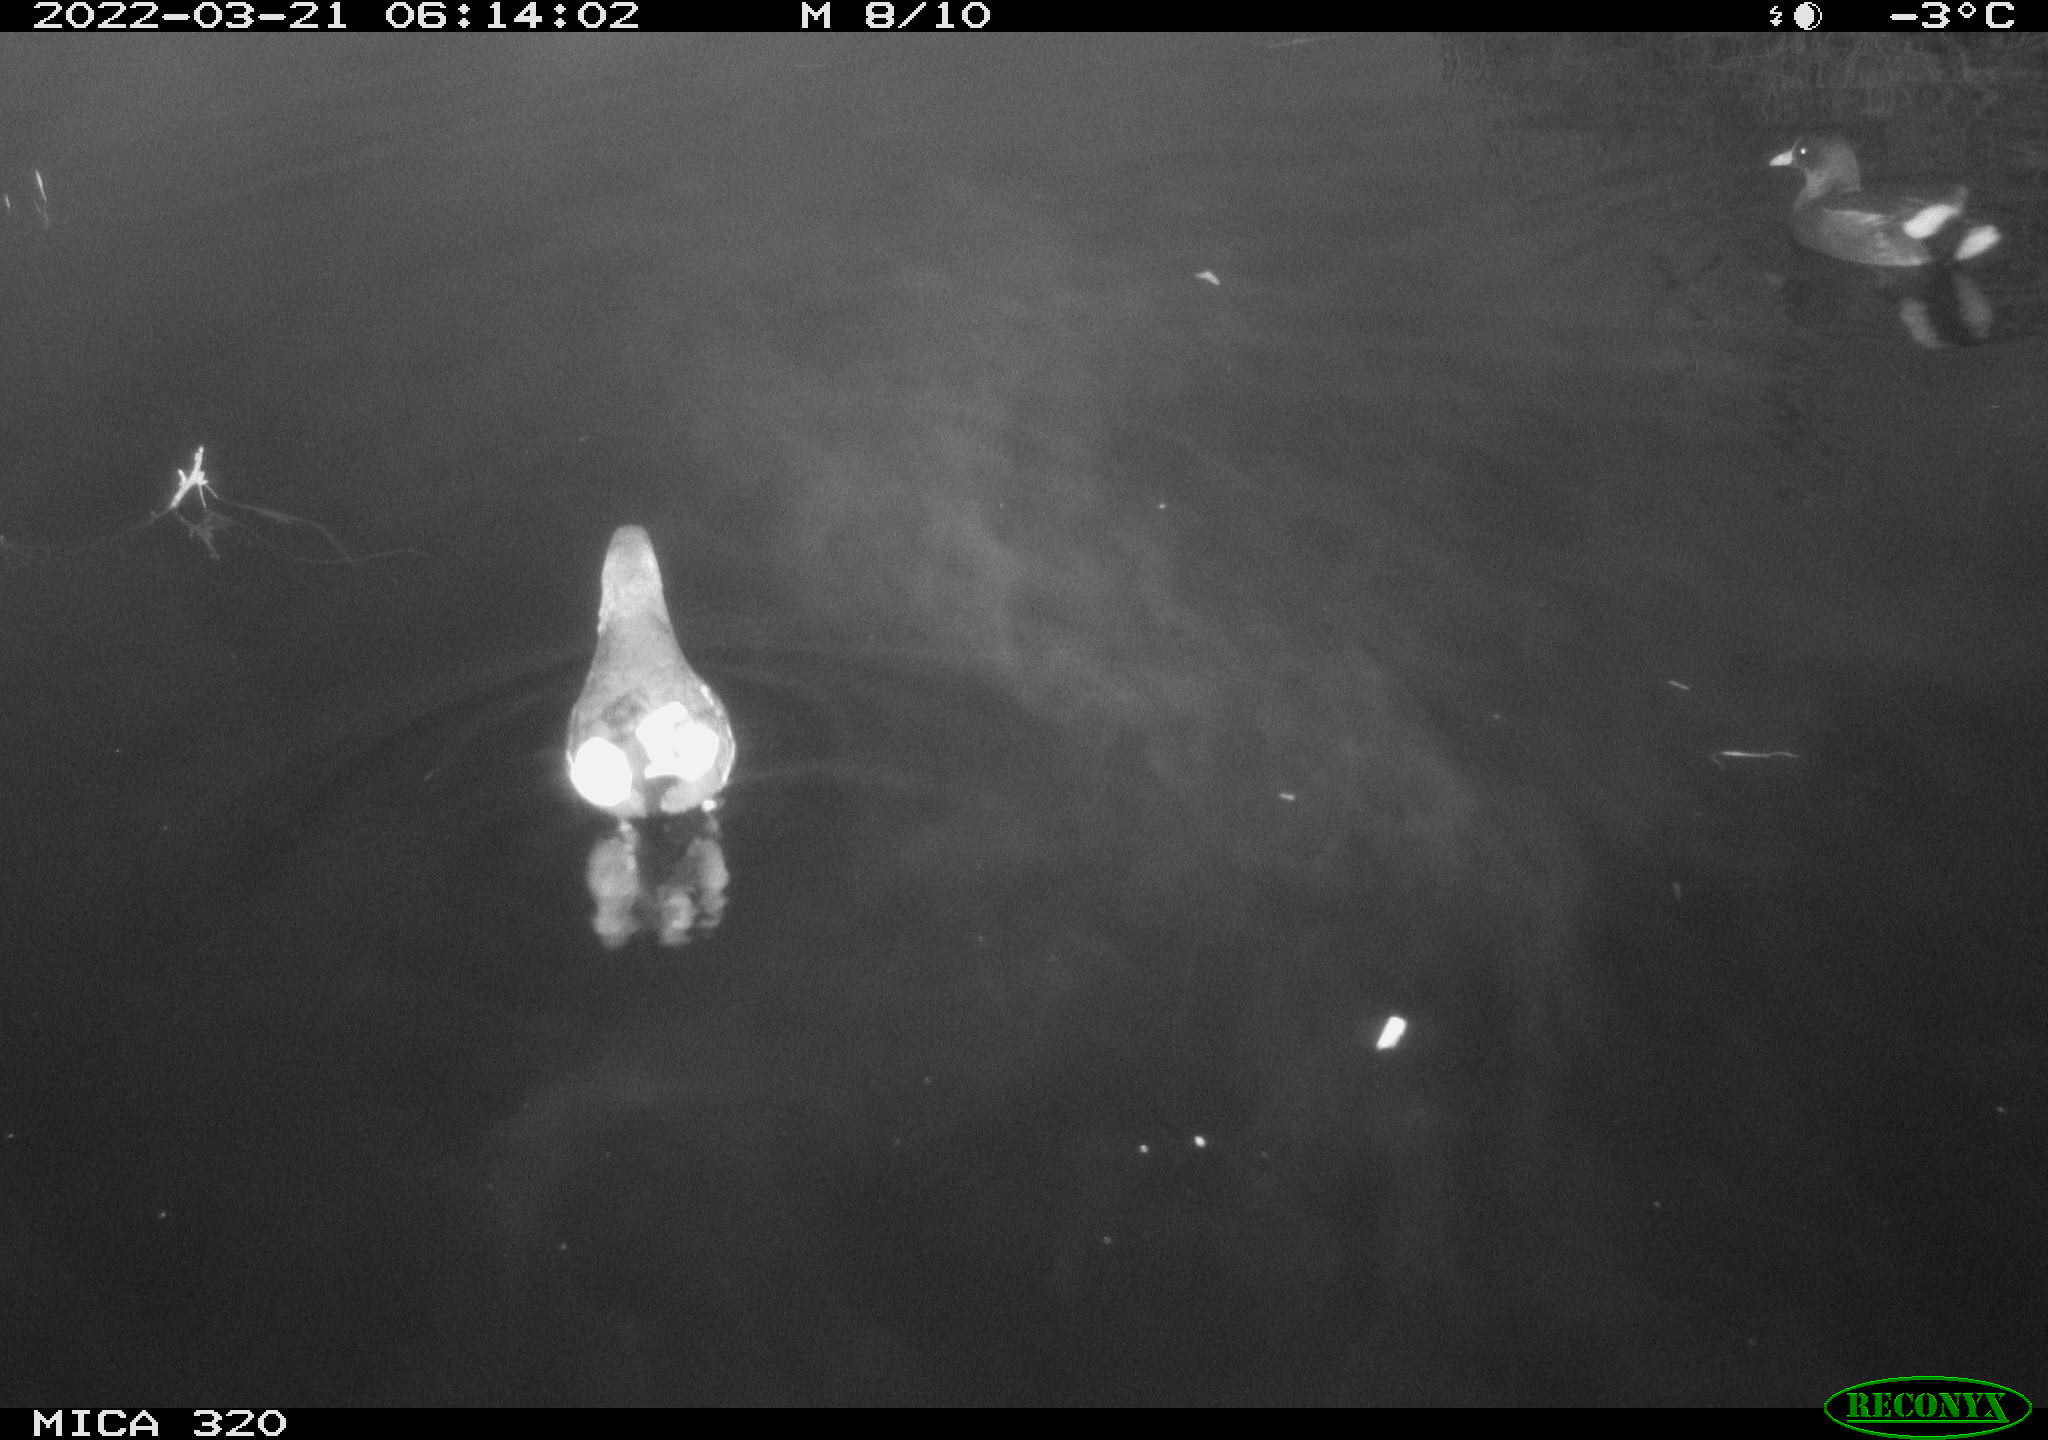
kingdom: Animalia
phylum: Chordata
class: Aves
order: Gruiformes
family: Rallidae
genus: Gallinula
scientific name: Gallinula chloropus
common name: Common moorhen
